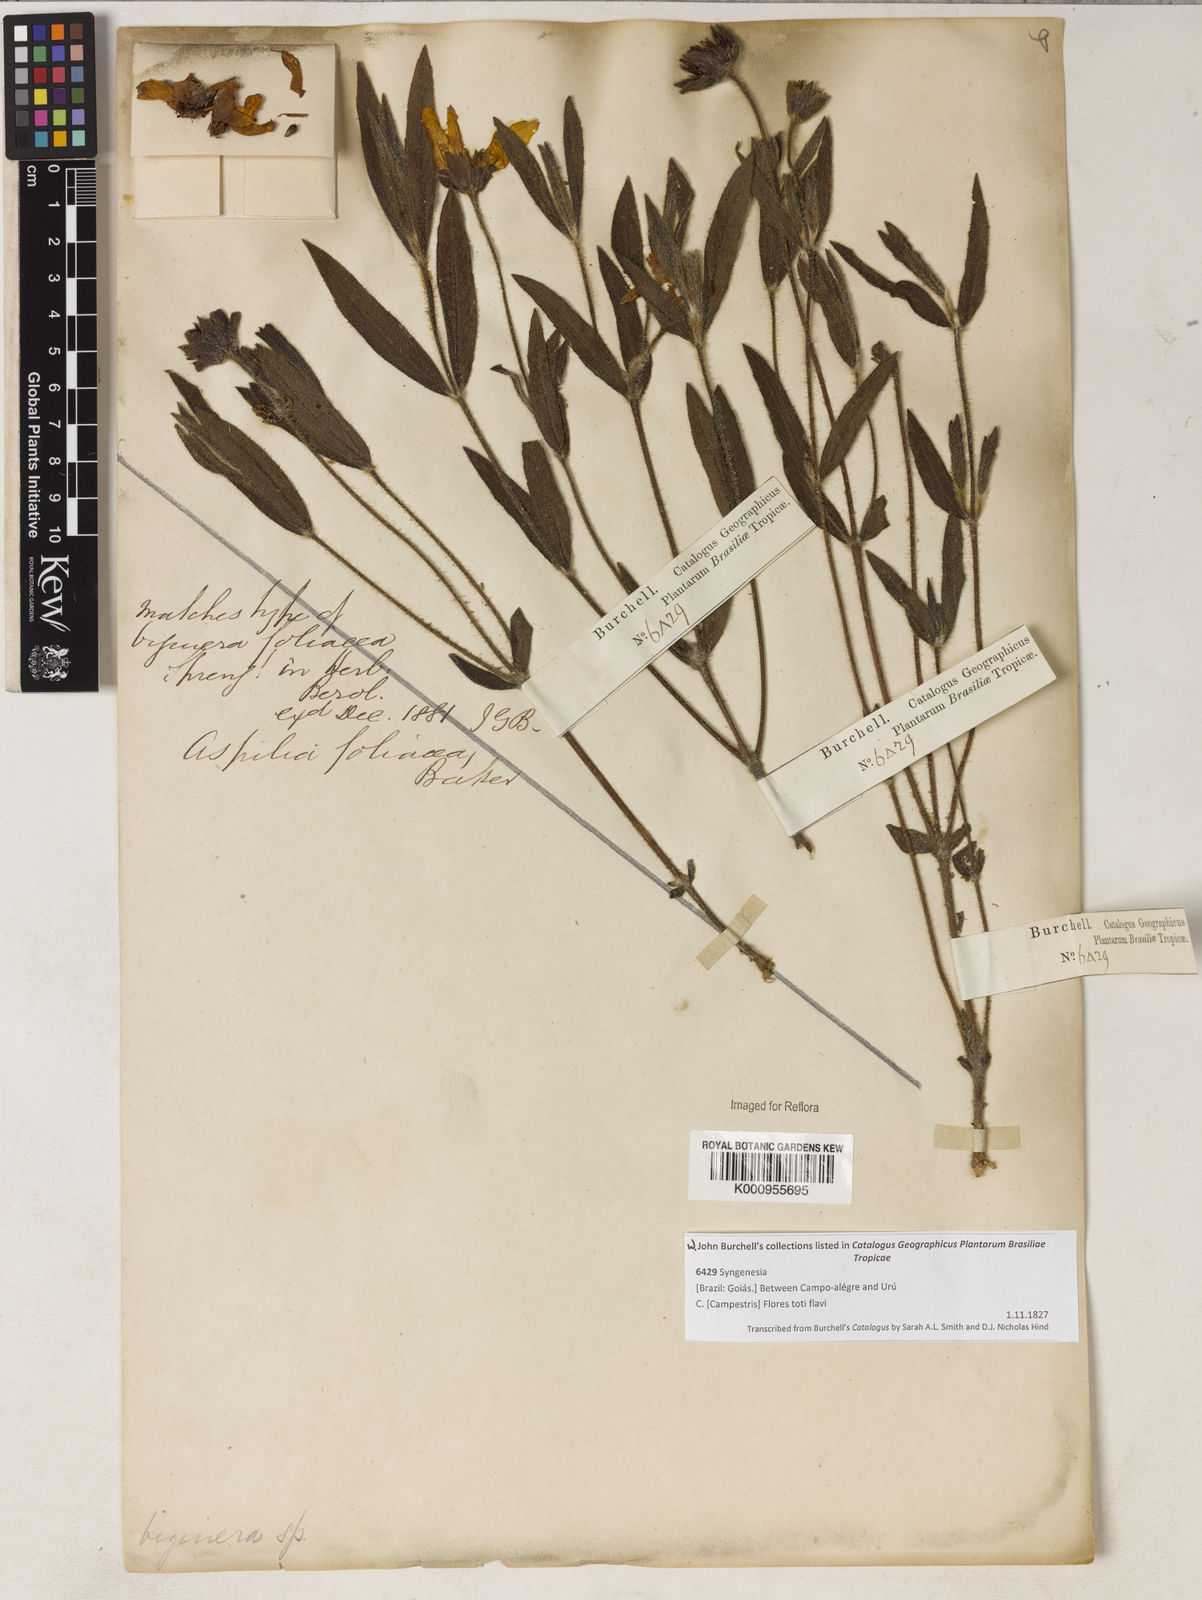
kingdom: Plantae
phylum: Tracheophyta
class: Magnoliopsida
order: Asterales
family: Asteraceae
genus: Wedelia
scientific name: Wedelia foliacea
